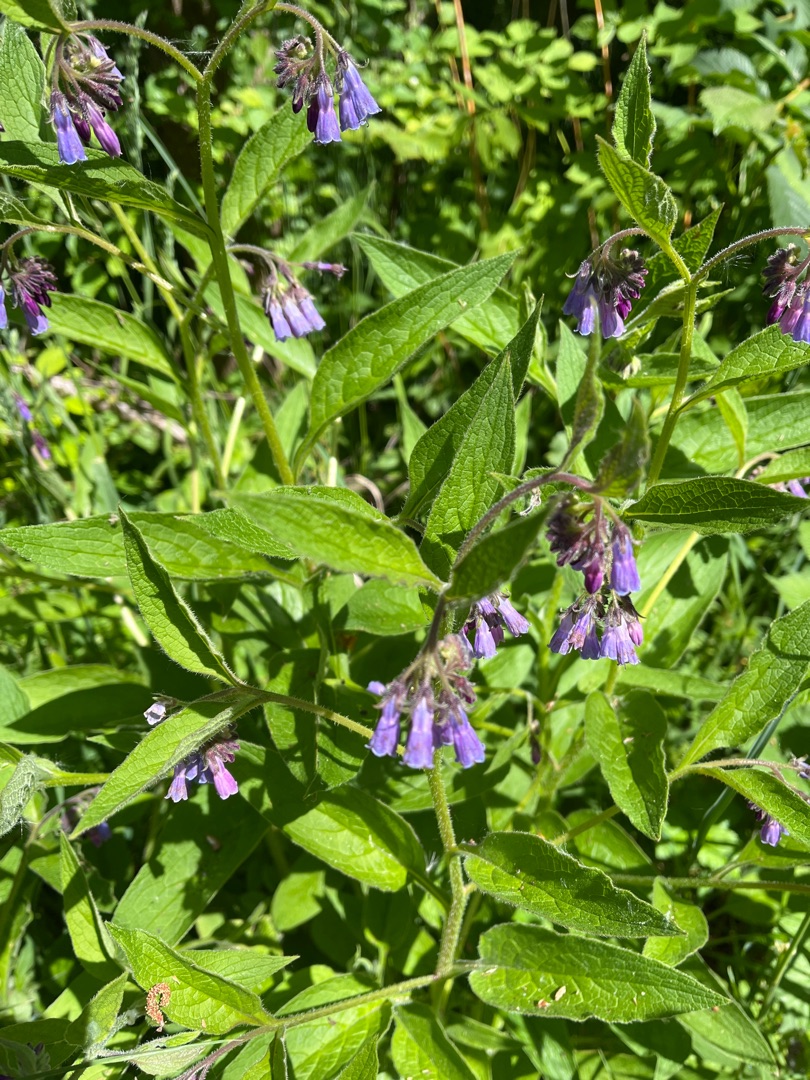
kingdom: Plantae
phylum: Tracheophyta
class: Magnoliopsida
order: Boraginales
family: Boraginaceae
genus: Symphytum
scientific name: Symphytum uplandicum
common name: Foder-kulsukker
